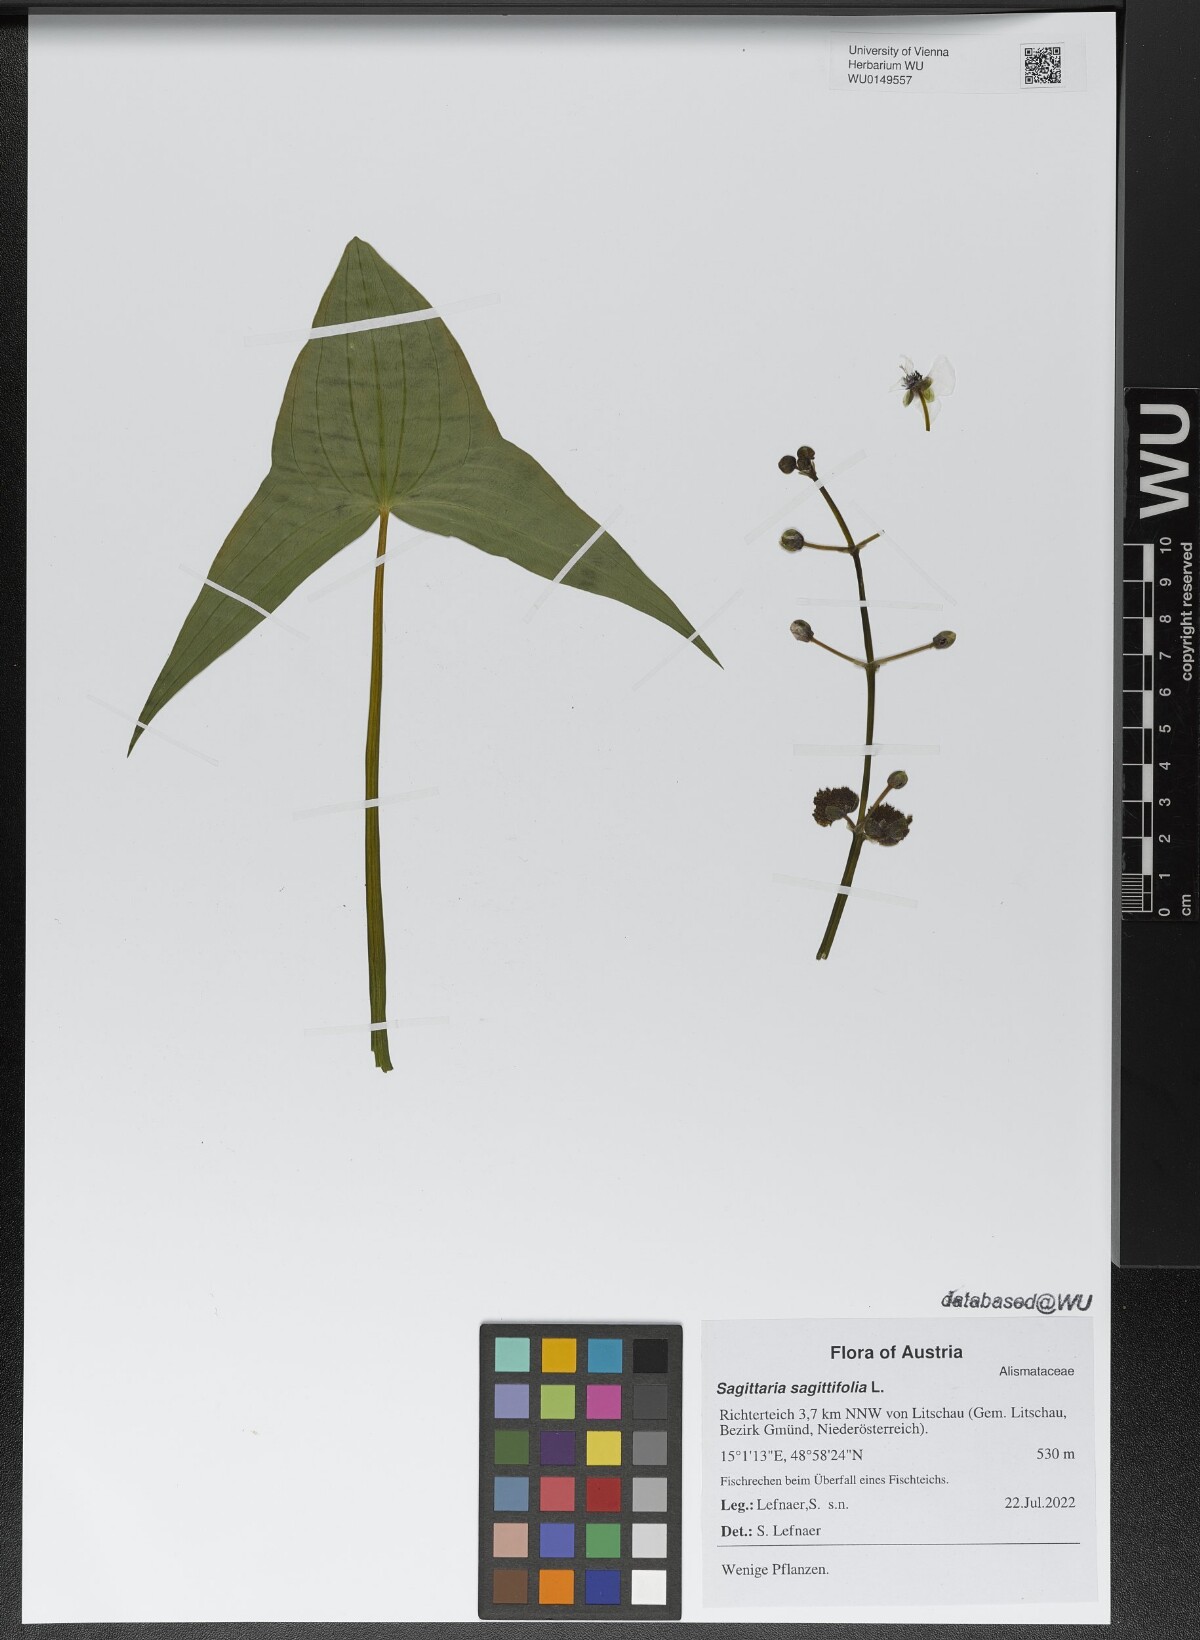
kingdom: Plantae
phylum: Tracheophyta
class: Liliopsida
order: Alismatales
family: Alismataceae
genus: Sagittaria
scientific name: Sagittaria sagittifolia
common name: Arrowhead
